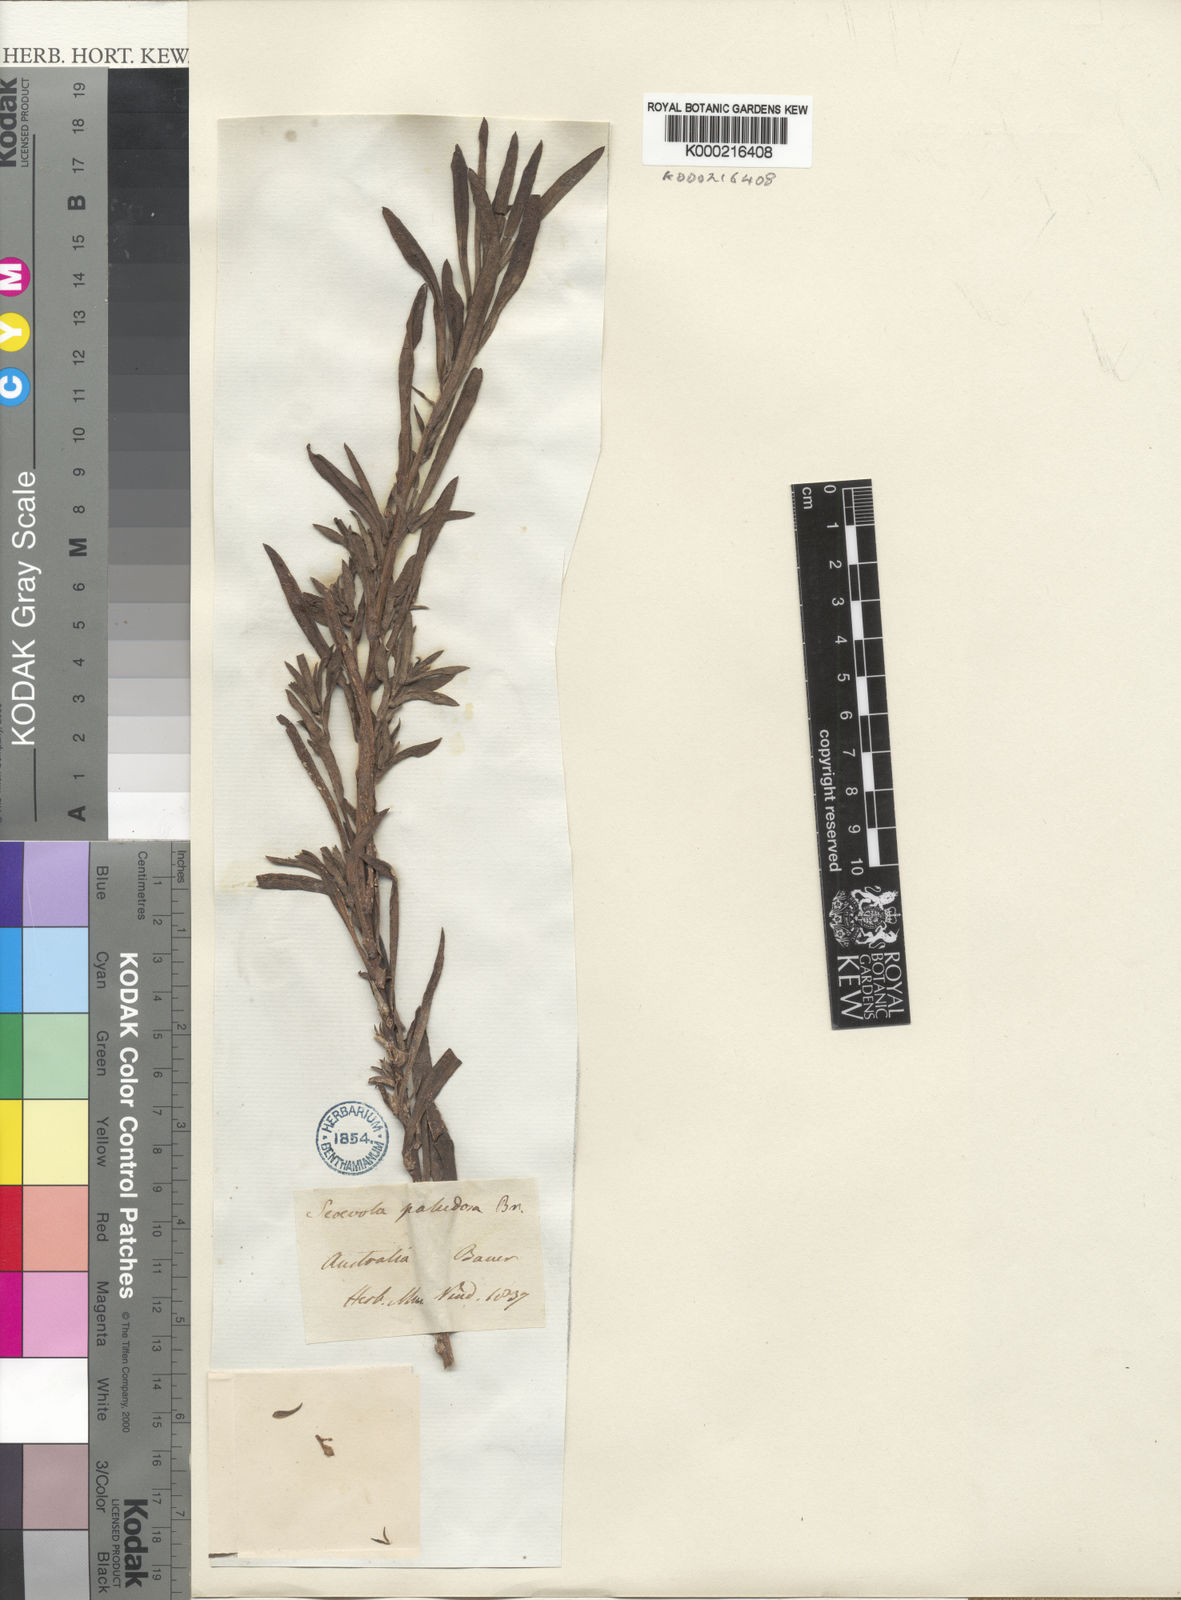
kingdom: Plantae
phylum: Tracheophyta
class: Magnoliopsida
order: Asterales
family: Goodeniaceae
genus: Scaevola
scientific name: Scaevola paludosa
